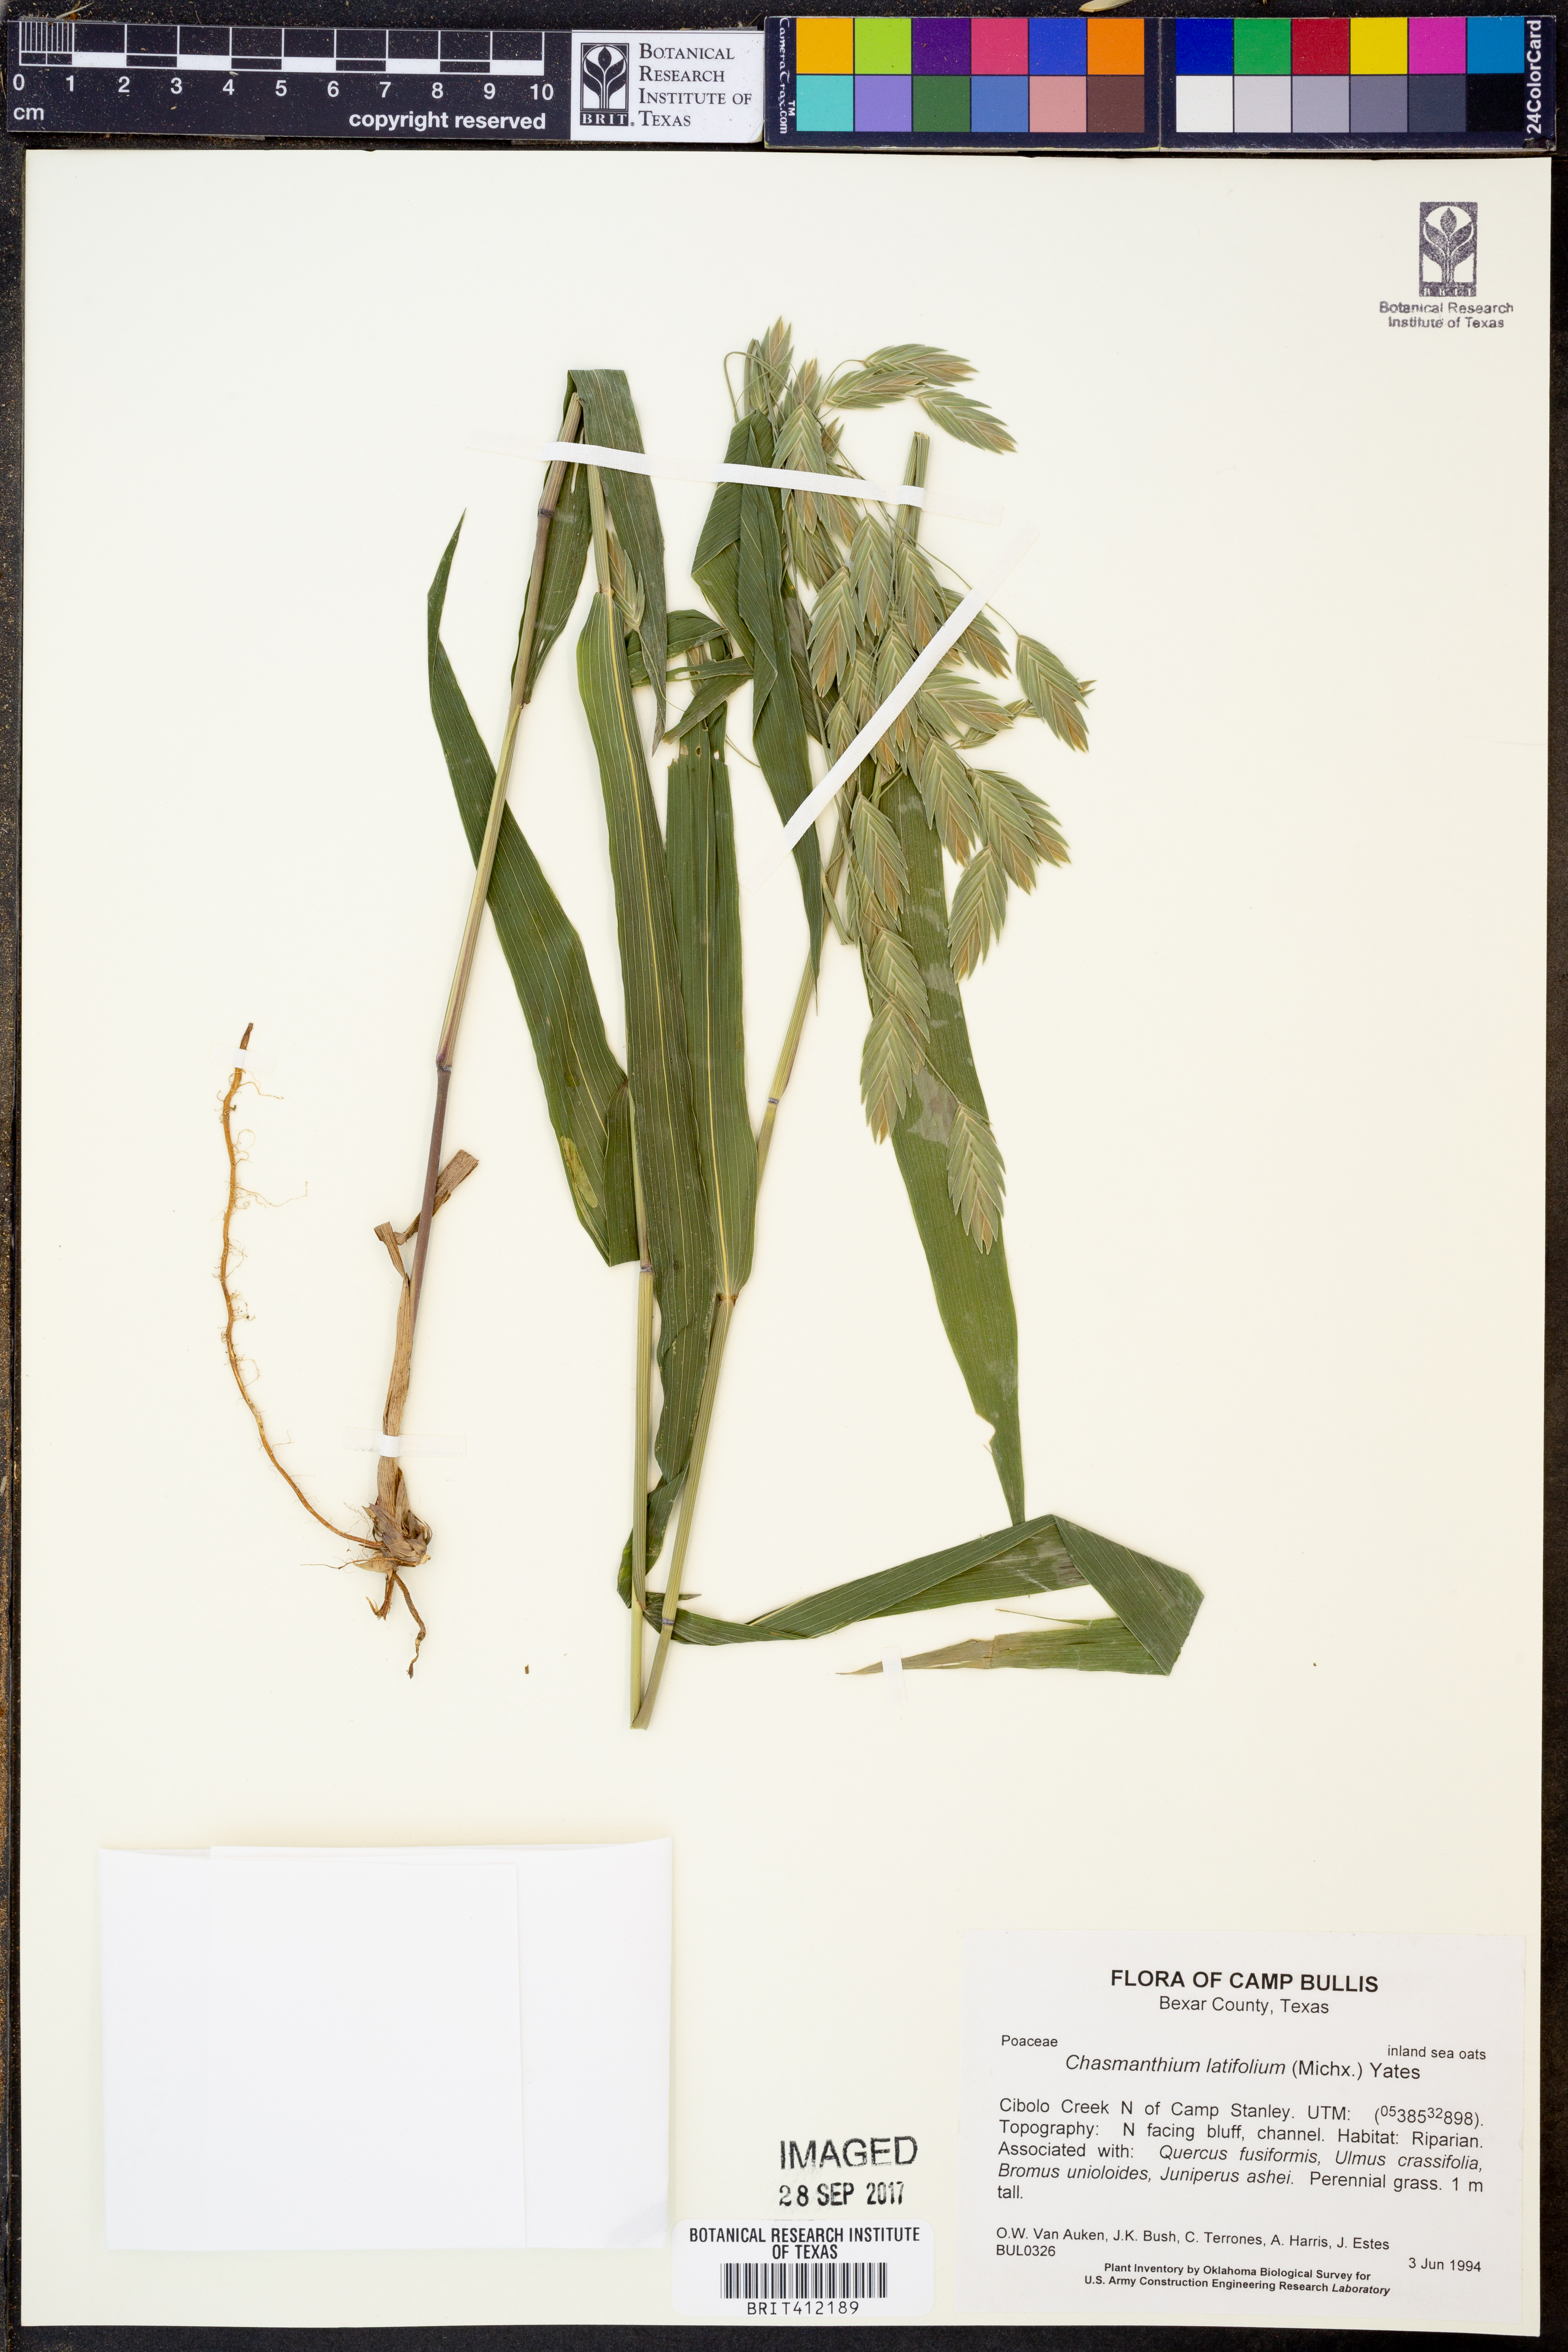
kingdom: Plantae
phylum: Tracheophyta
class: Liliopsida
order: Poales
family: Poaceae
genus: Chasmanthium
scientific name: Chasmanthium latifolium
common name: Broad-leaved chasmanthium
